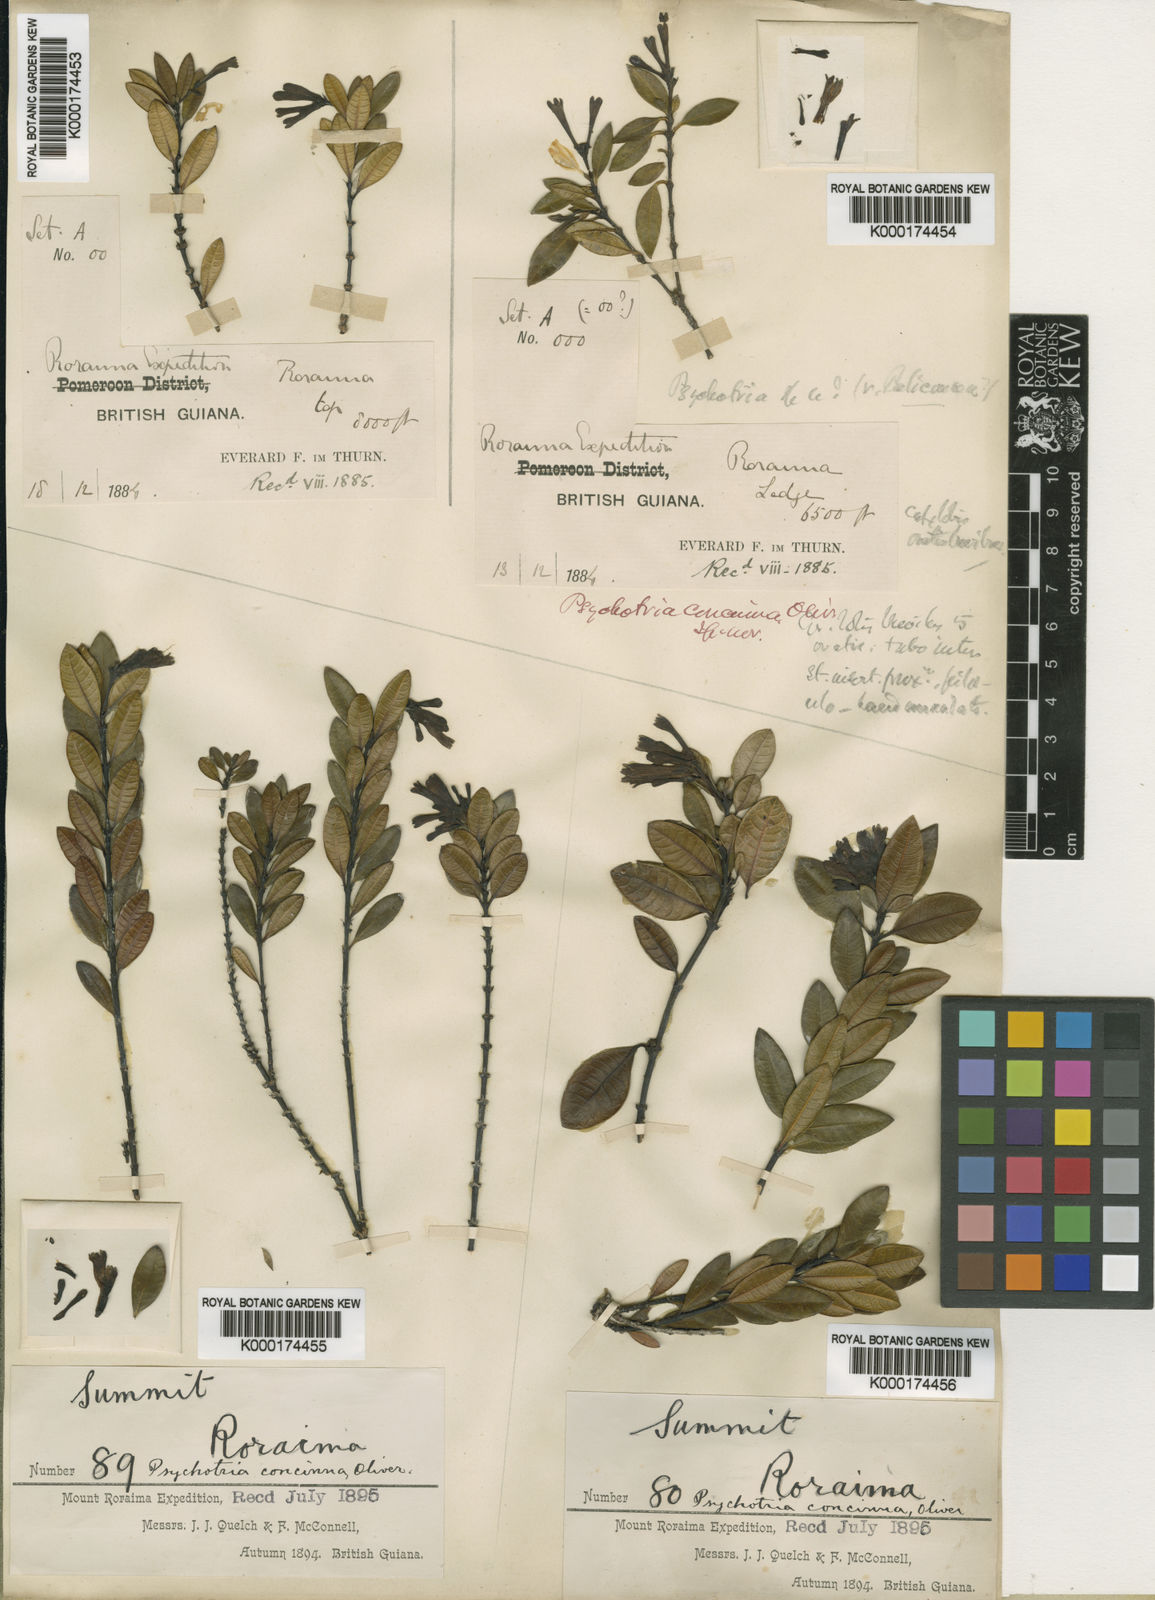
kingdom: Plantae
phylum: Tracheophyta
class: Magnoliopsida
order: Gentianales
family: Rubiaceae
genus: Palicourea
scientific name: Palicourea concinna
